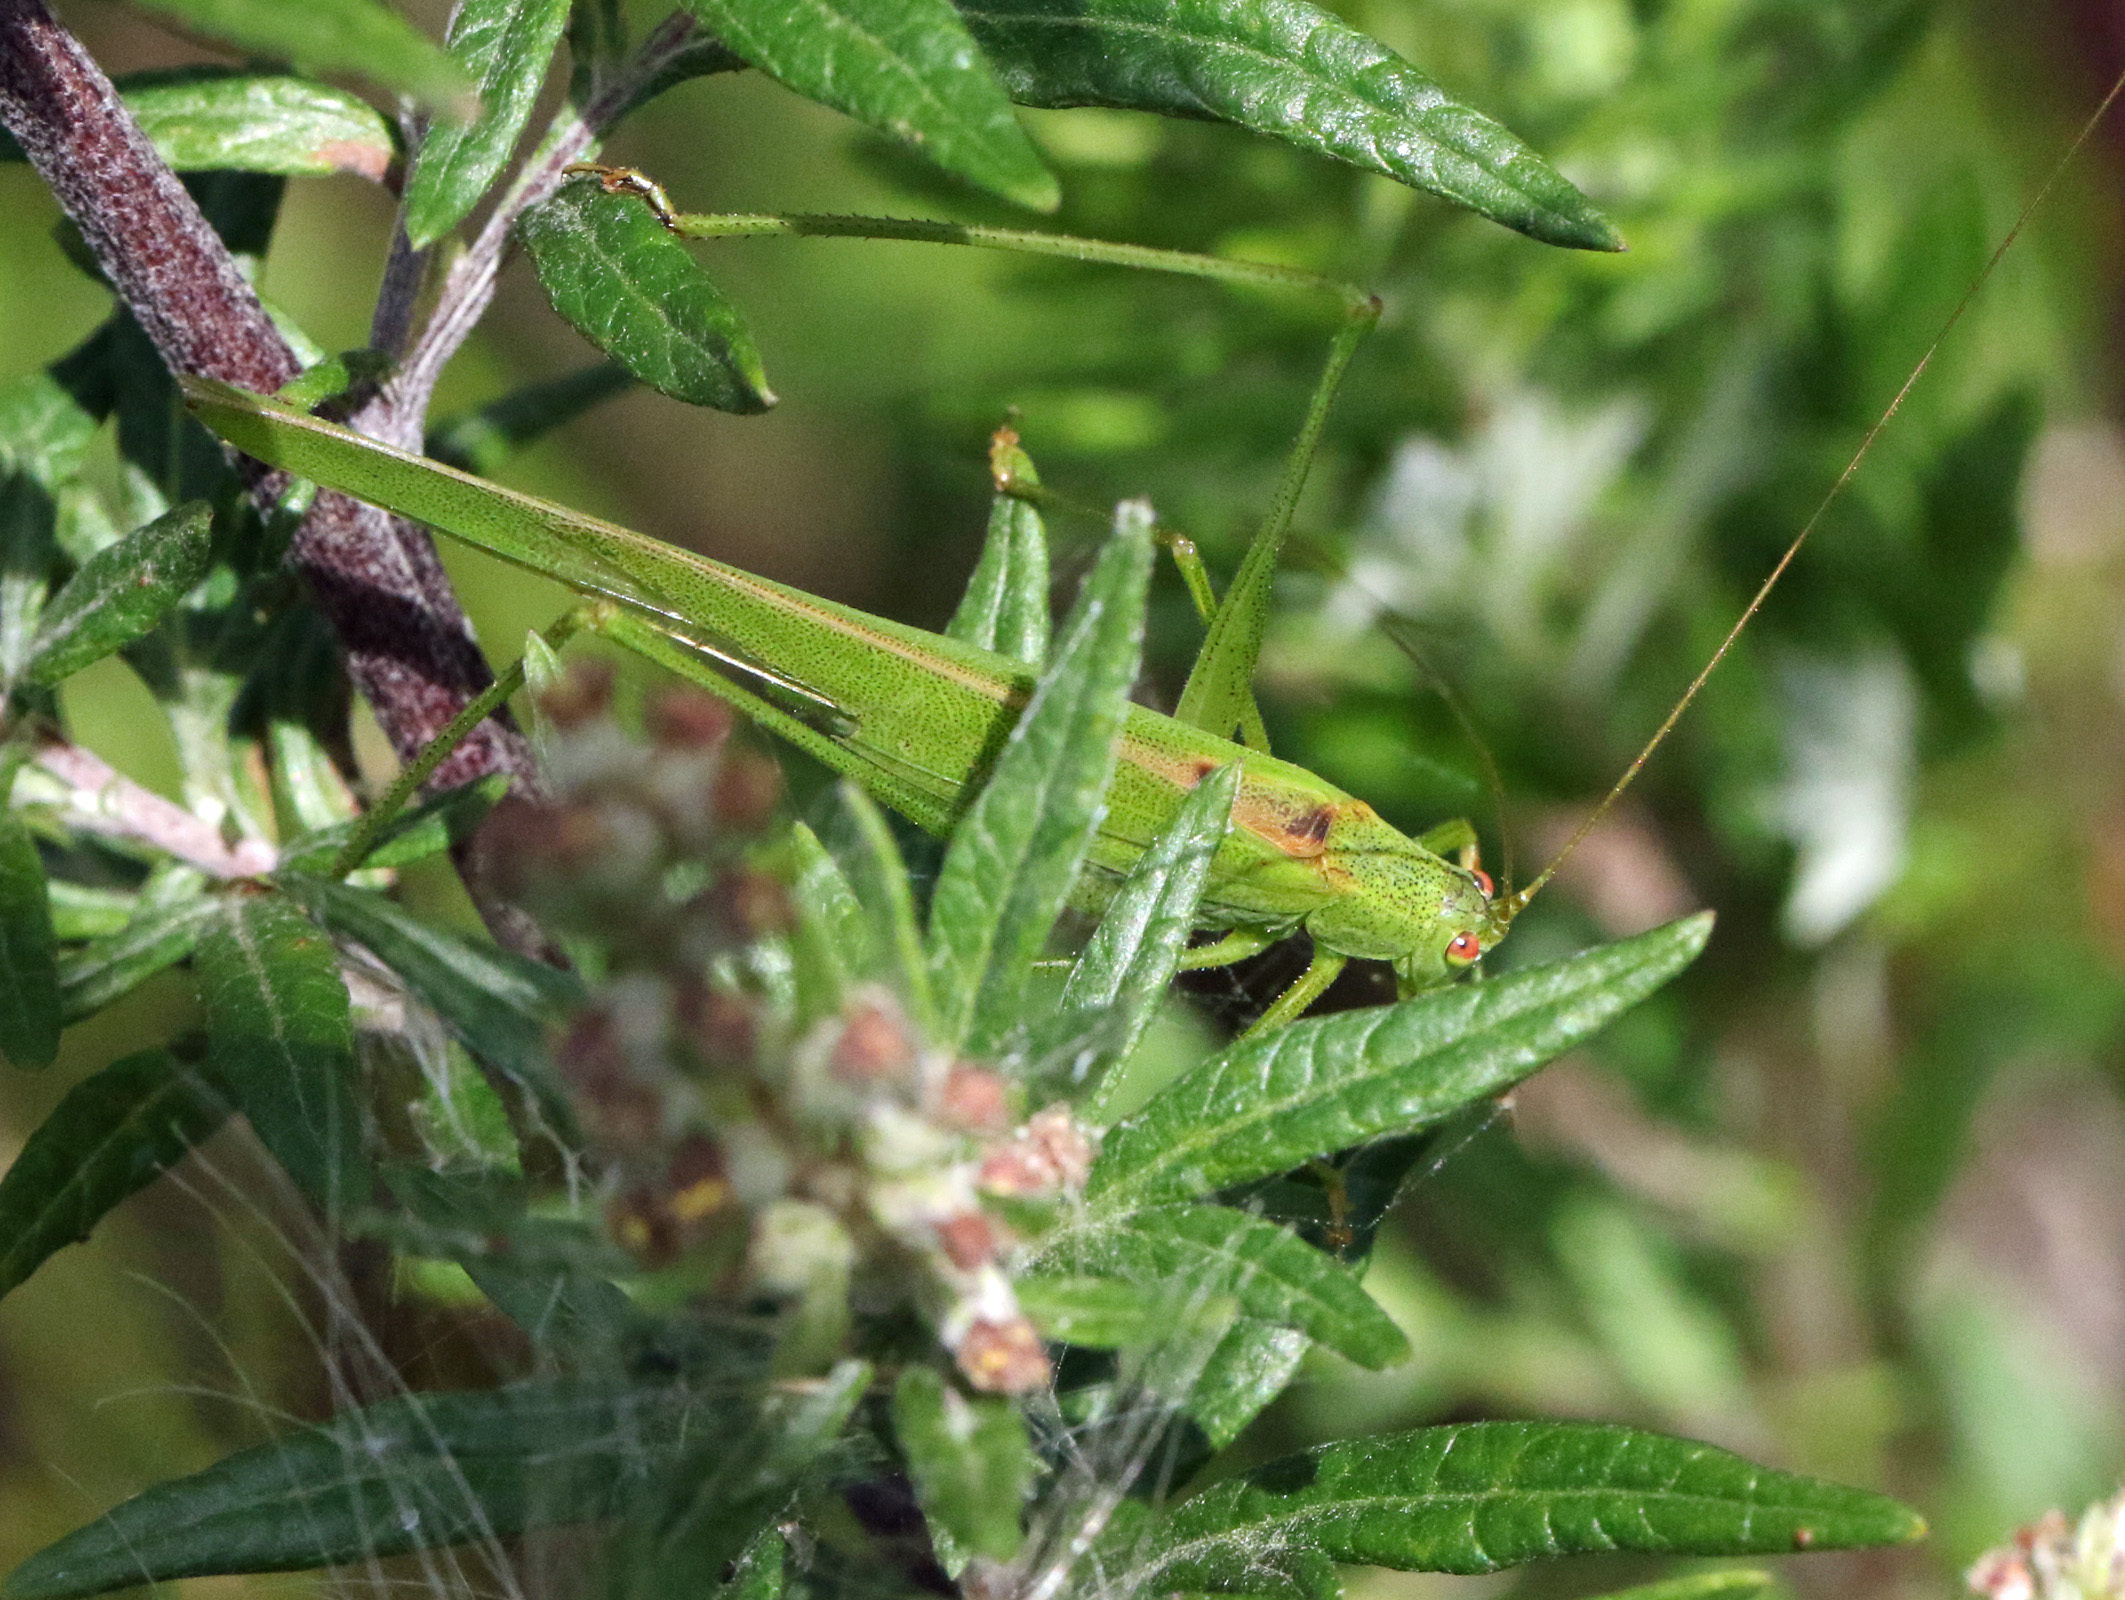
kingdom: Animalia
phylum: Arthropoda
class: Insecta
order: Orthoptera
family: Tettigoniidae
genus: Phaneroptera
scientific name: Phaneroptera falcata
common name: Sickle-bearing bush-cricket
